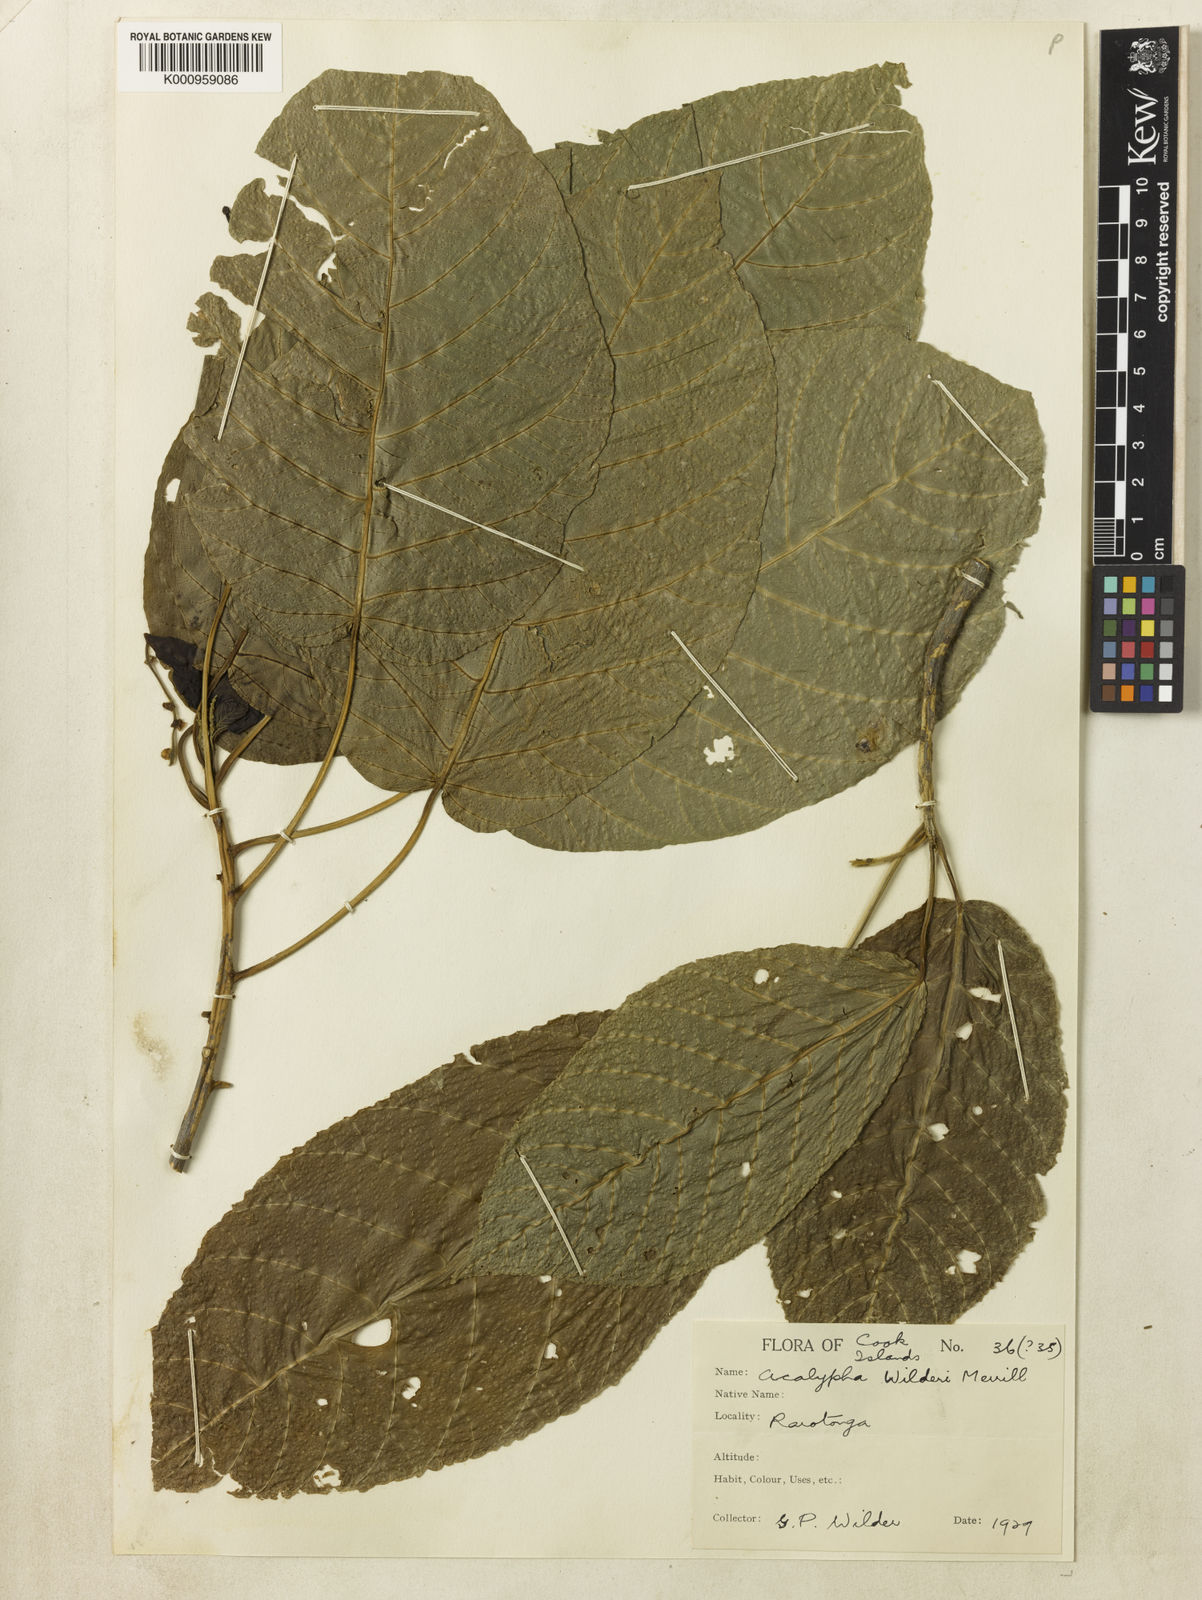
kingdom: Plantae
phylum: Tracheophyta
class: Magnoliopsida
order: Malpighiales
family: Euphorbiaceae
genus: Acalypha
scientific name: Acalypha wilderi
